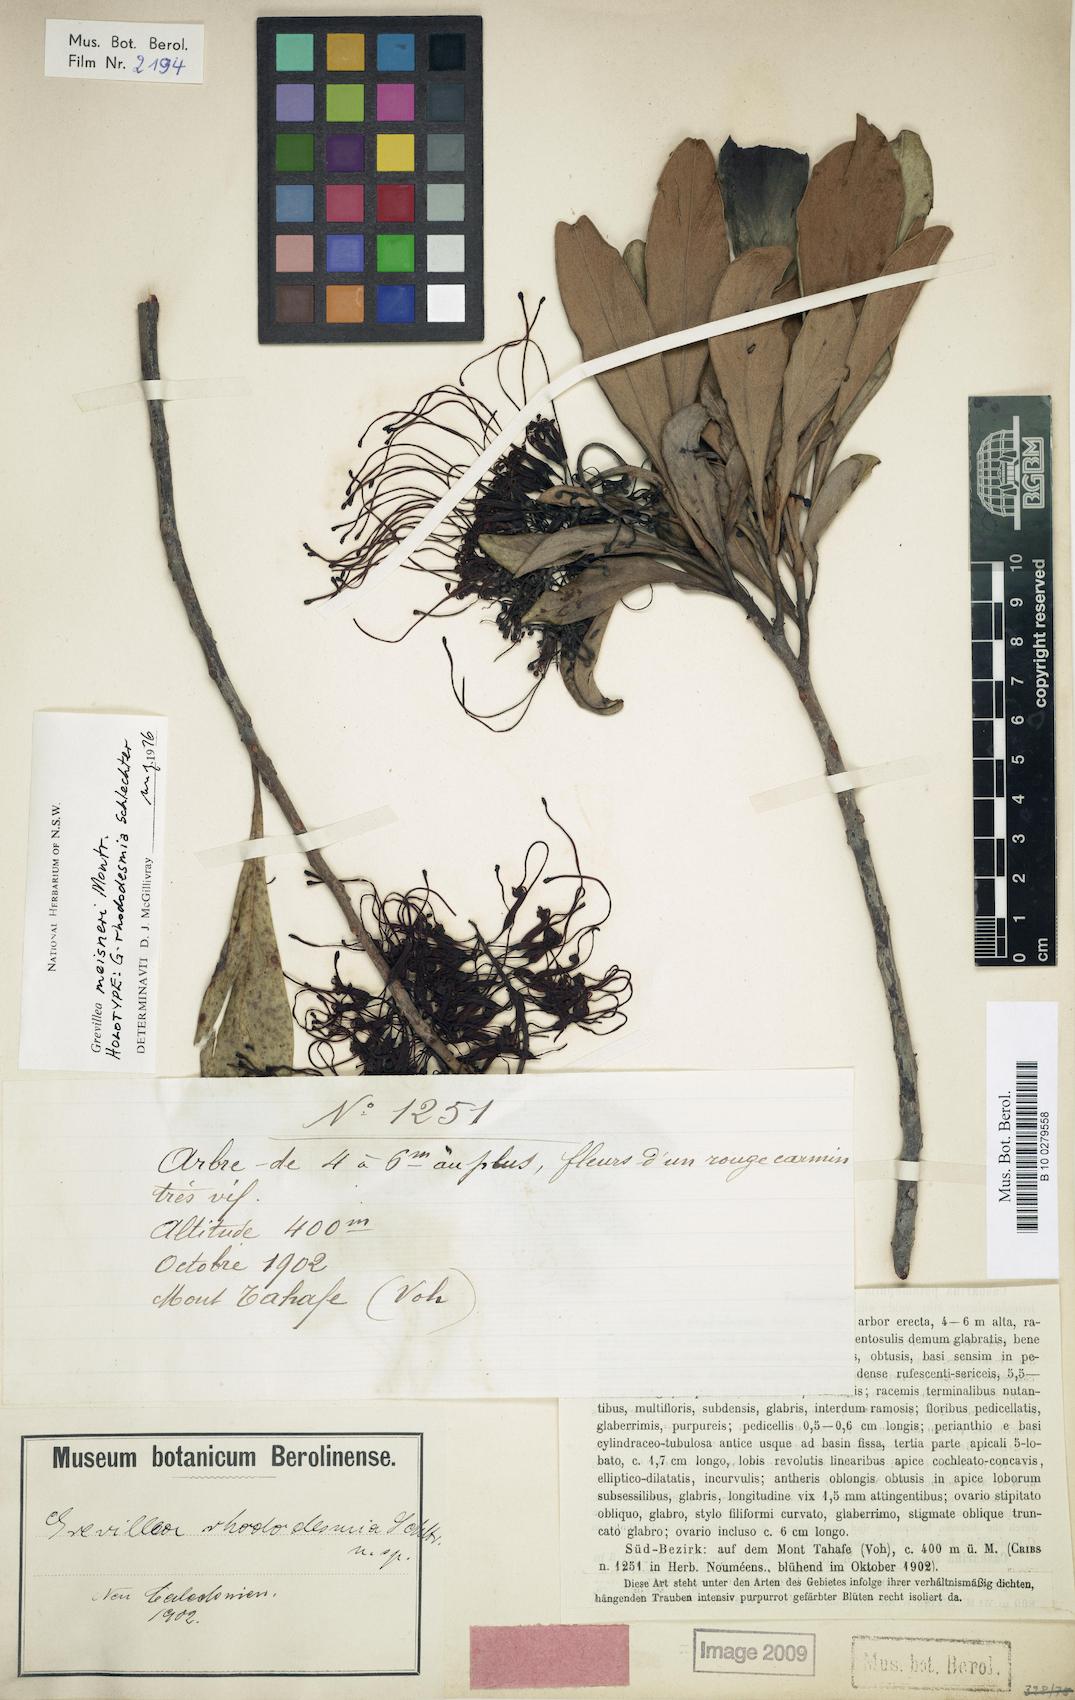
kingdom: Plantae
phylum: Tracheophyta
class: Magnoliopsida
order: Proteales
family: Proteaceae
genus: Grevillea
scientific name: Grevillea meisneri
